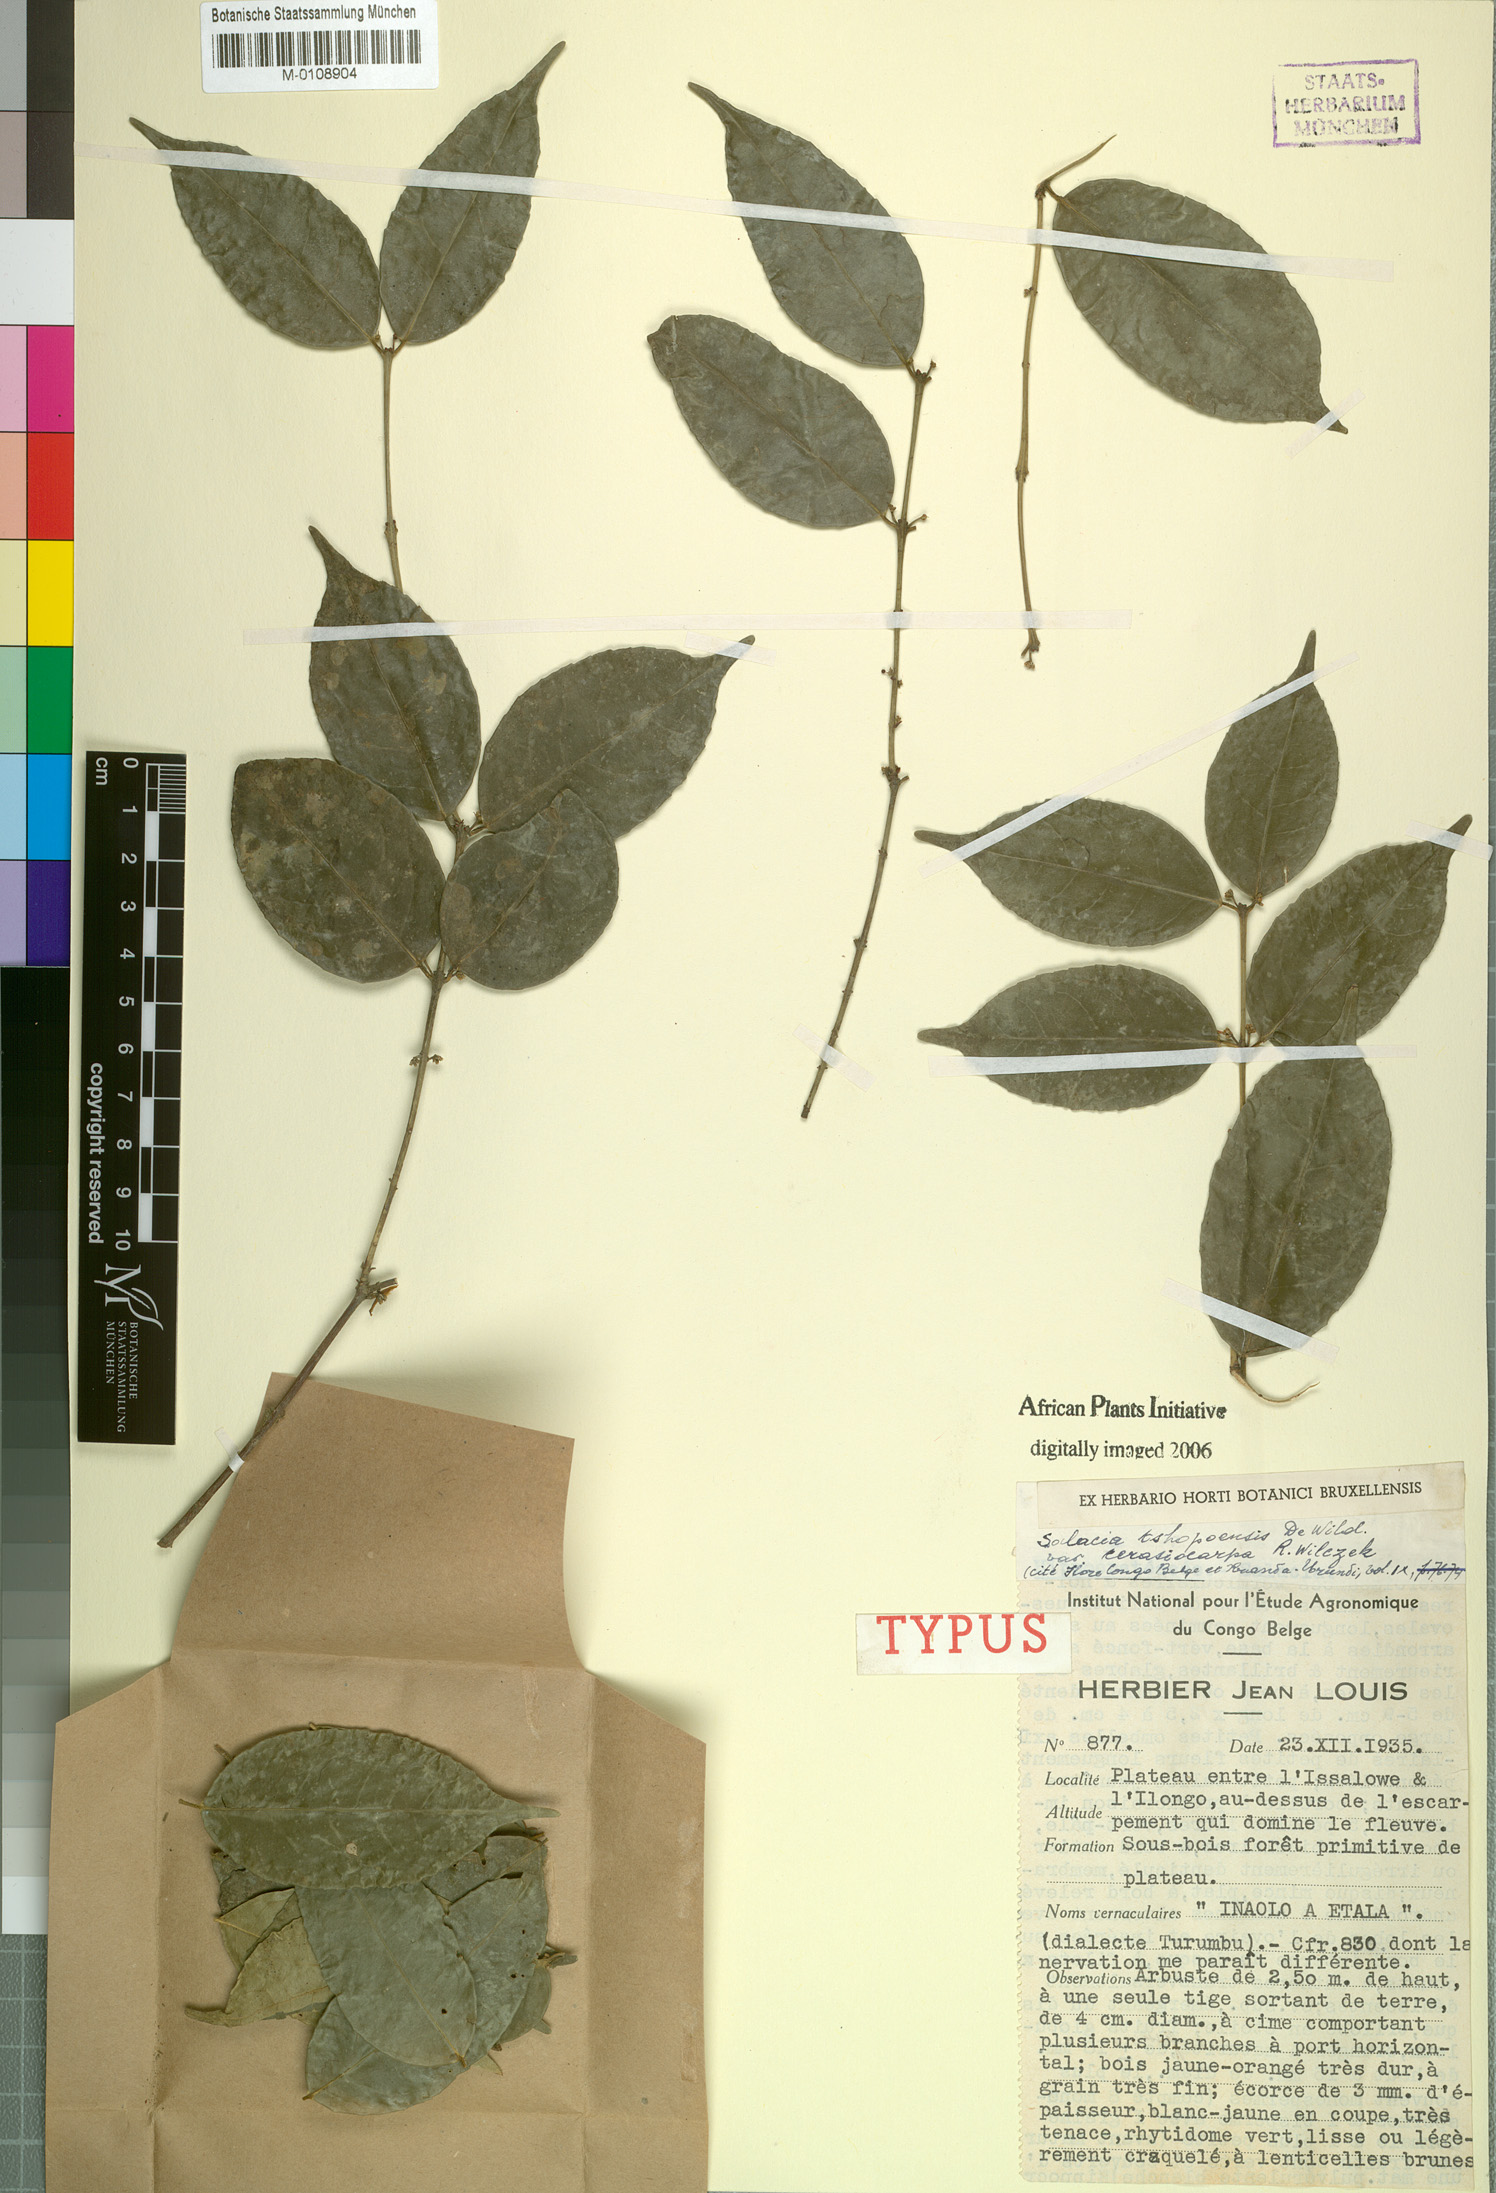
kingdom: Plantae
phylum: Tracheophyta
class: Magnoliopsida
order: Celastrales
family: Celastraceae
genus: Salacia
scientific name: Salacia staudtiana
